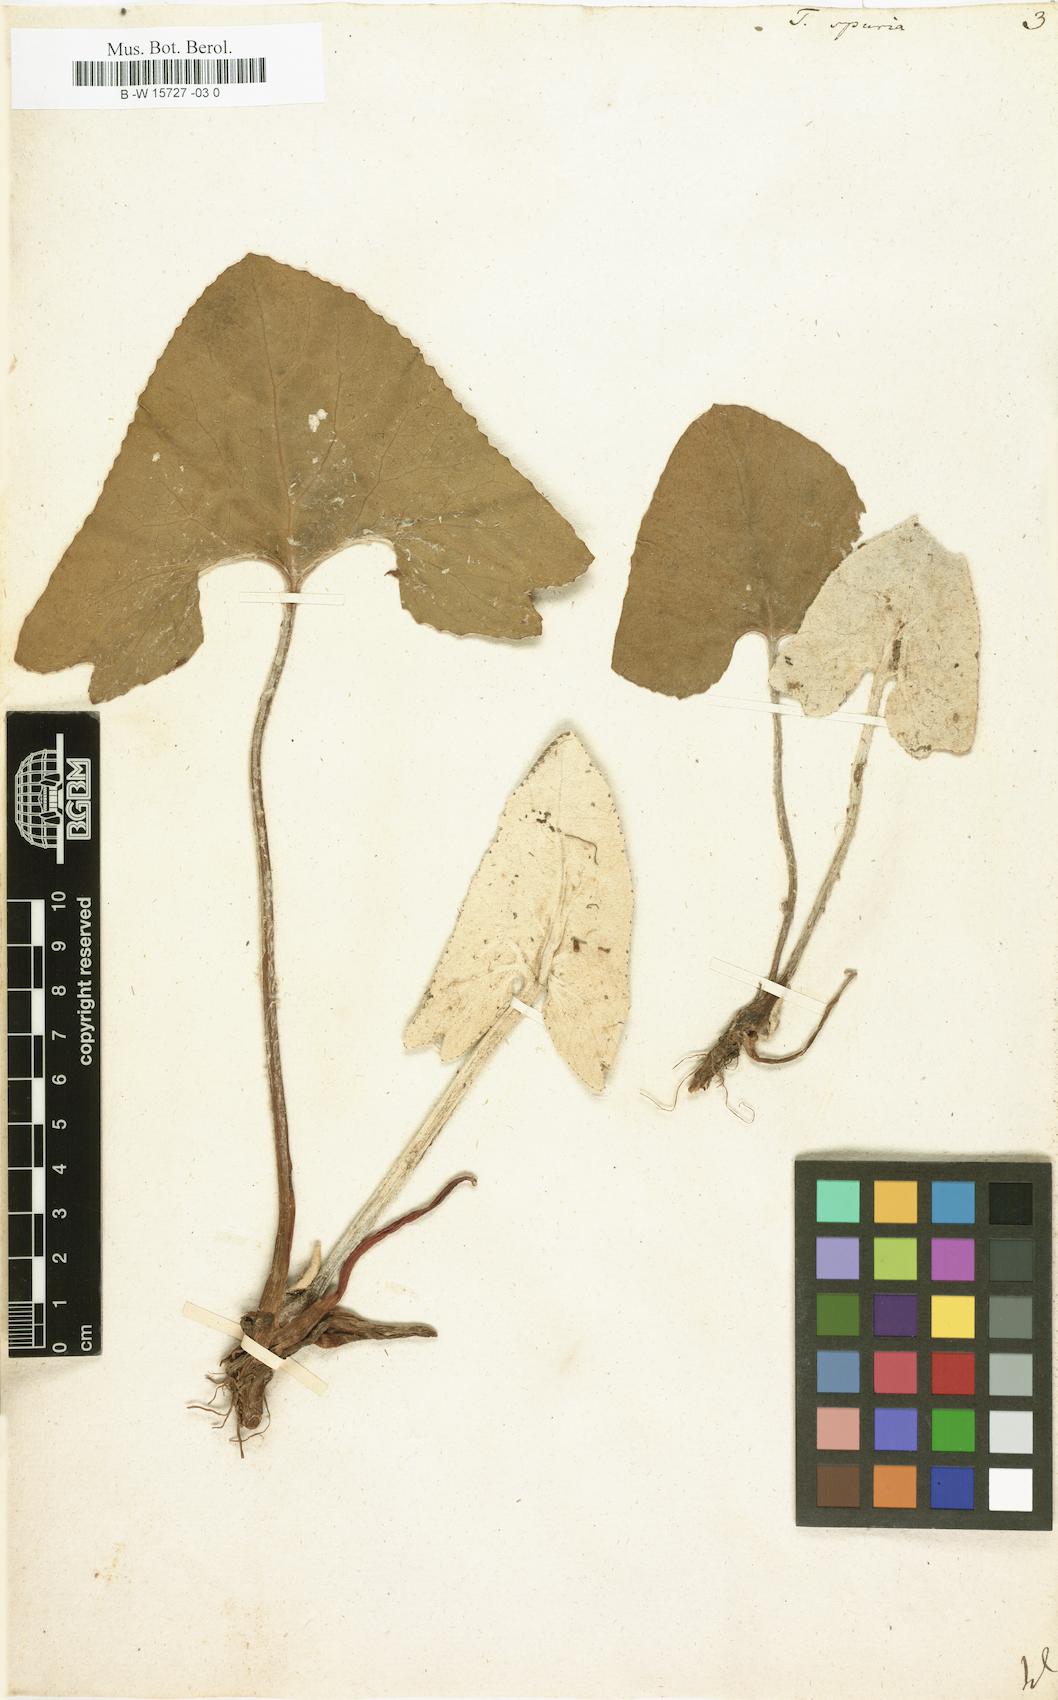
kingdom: Plantae
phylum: Tracheophyta
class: Magnoliopsida
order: Asterales
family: Asteraceae
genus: Petasites
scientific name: Petasites
